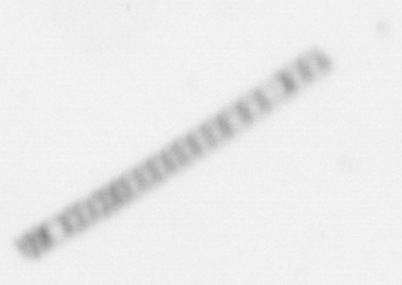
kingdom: Chromista
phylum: Ochrophyta
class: Bacillariophyceae
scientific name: Bacillariophyceae
